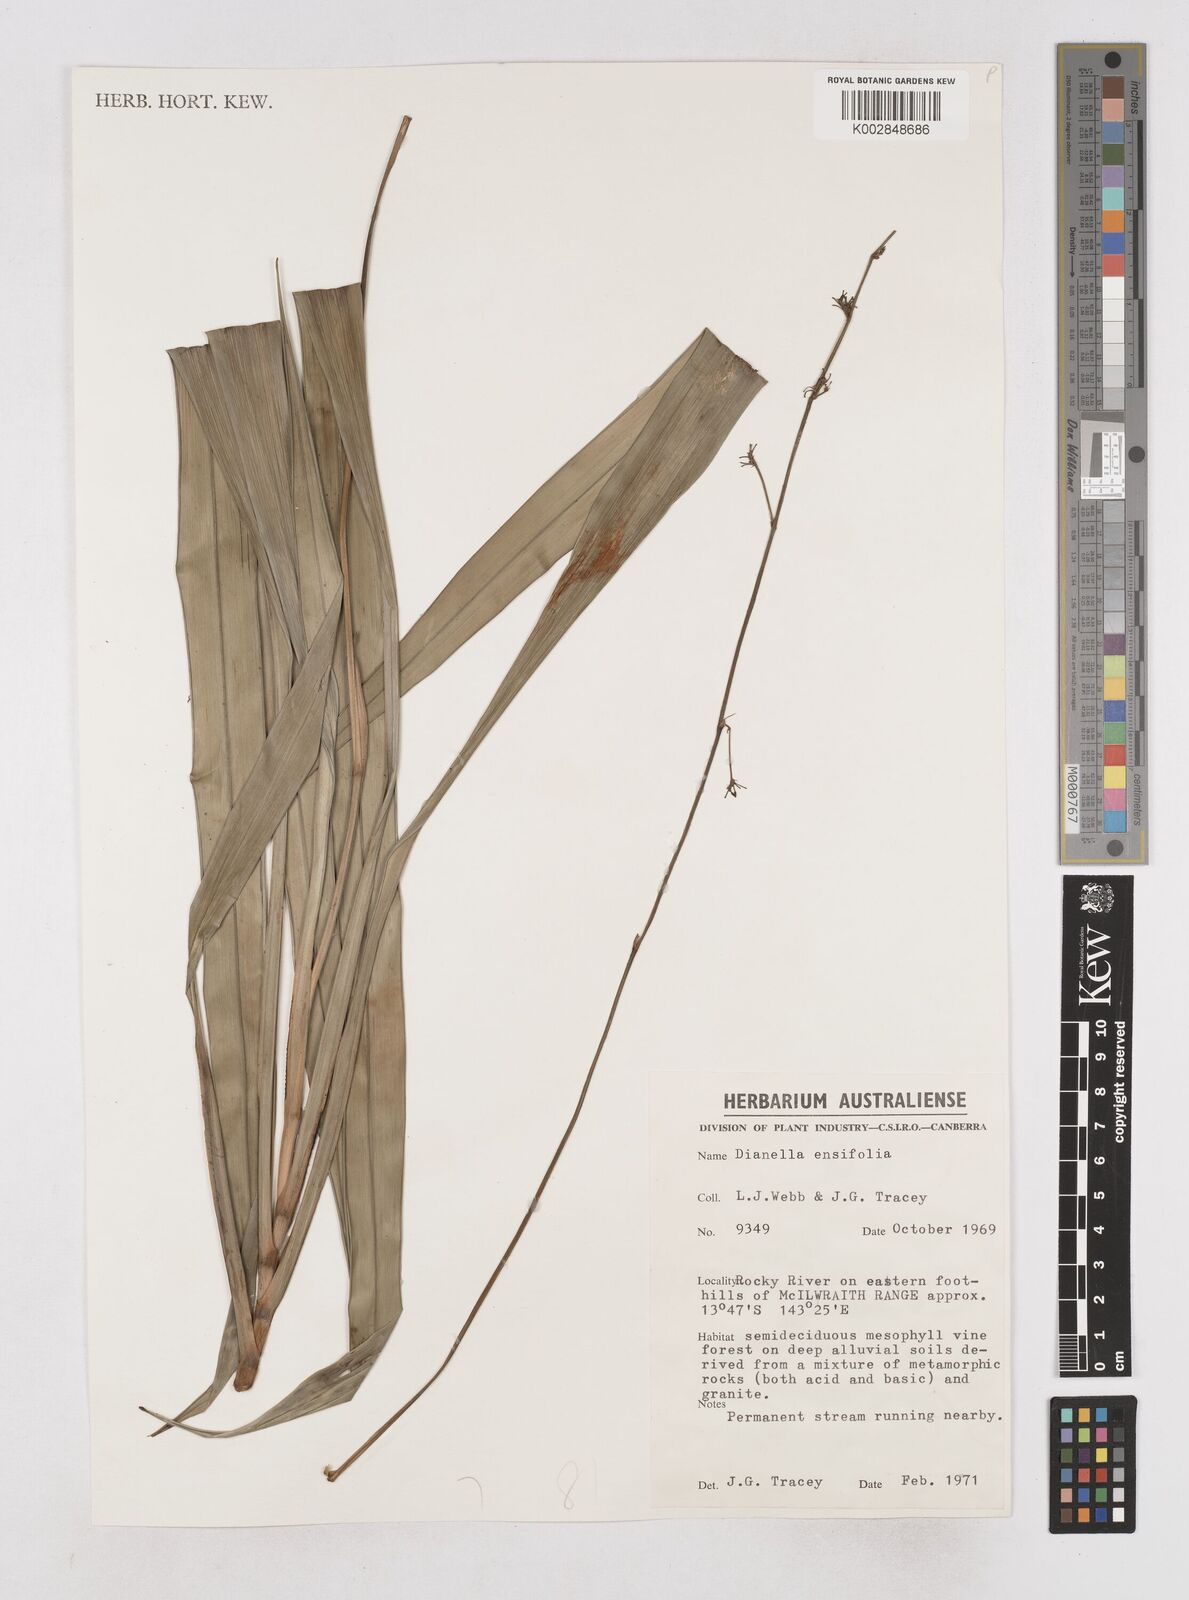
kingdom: Plantae
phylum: Tracheophyta
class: Liliopsida
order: Asparagales
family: Asphodelaceae
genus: Dianella
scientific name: Dianella ensifolia
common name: New zealand lilyplant
